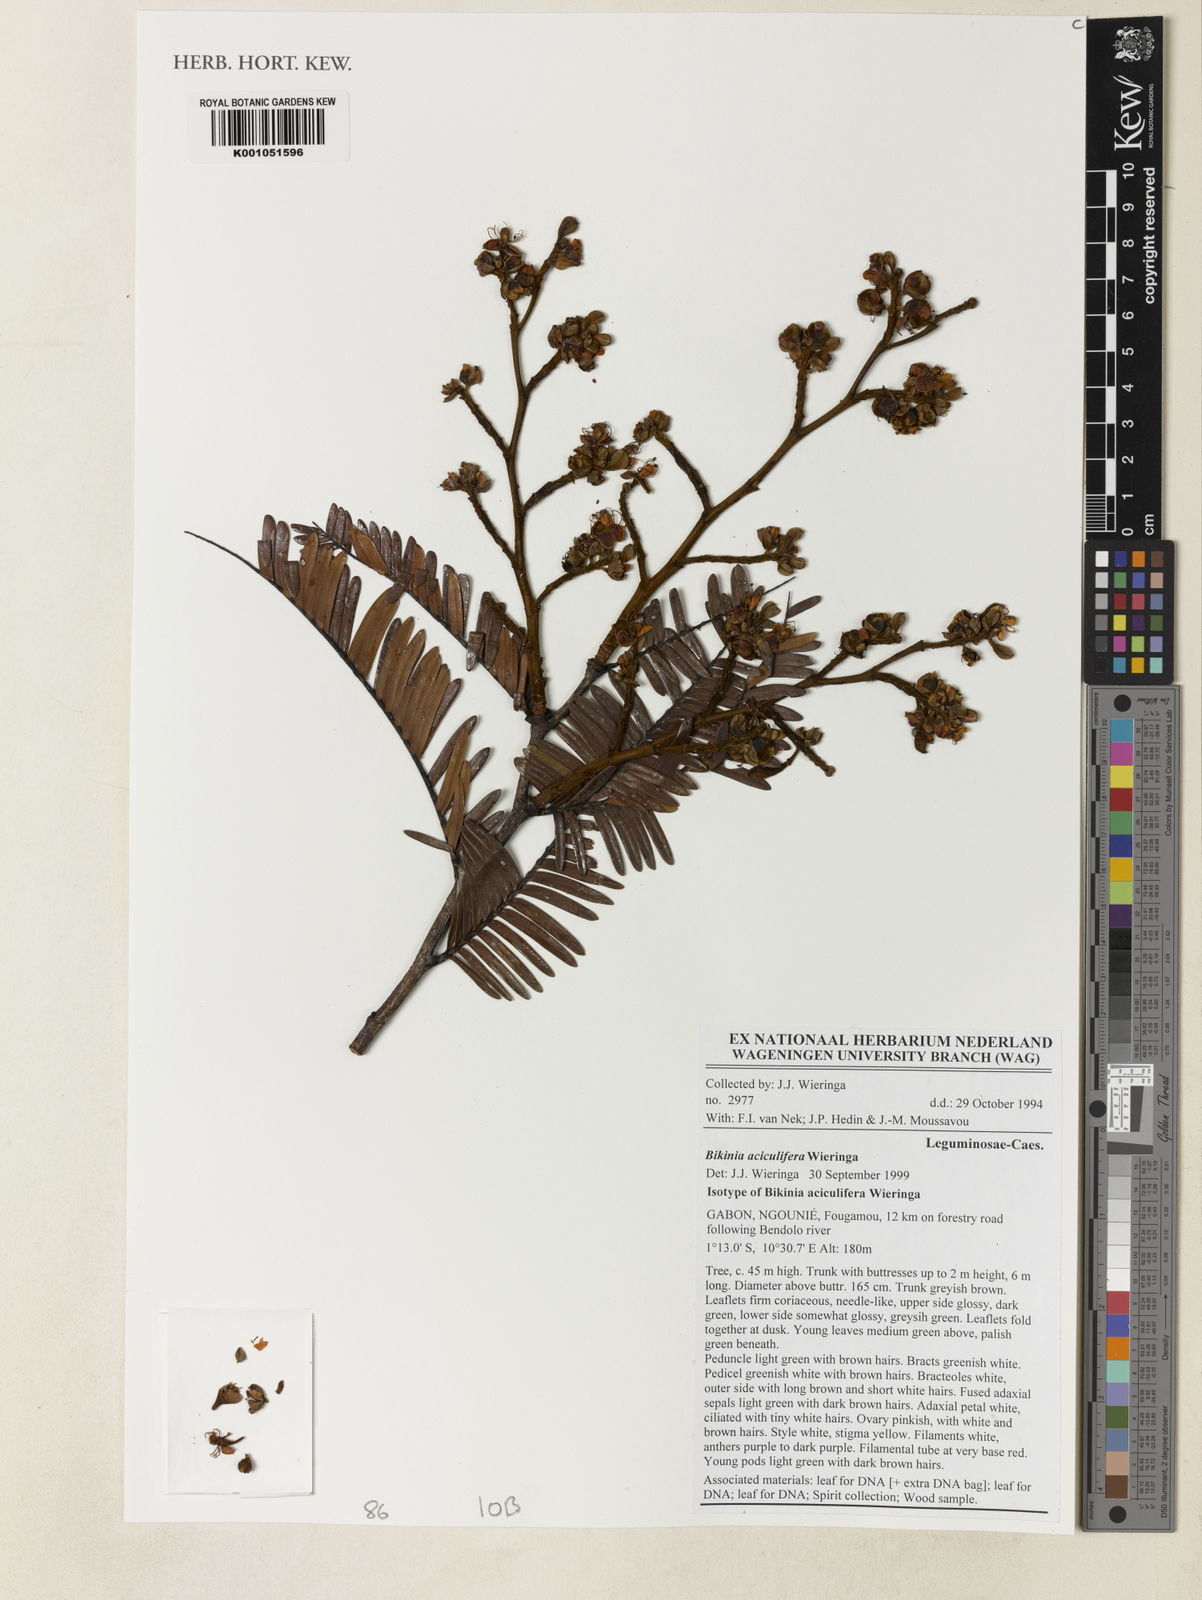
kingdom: Plantae
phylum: Tracheophyta
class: Magnoliopsida
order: Fabales
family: Fabaceae
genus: Bikinia
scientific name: Bikinia aciculifera
